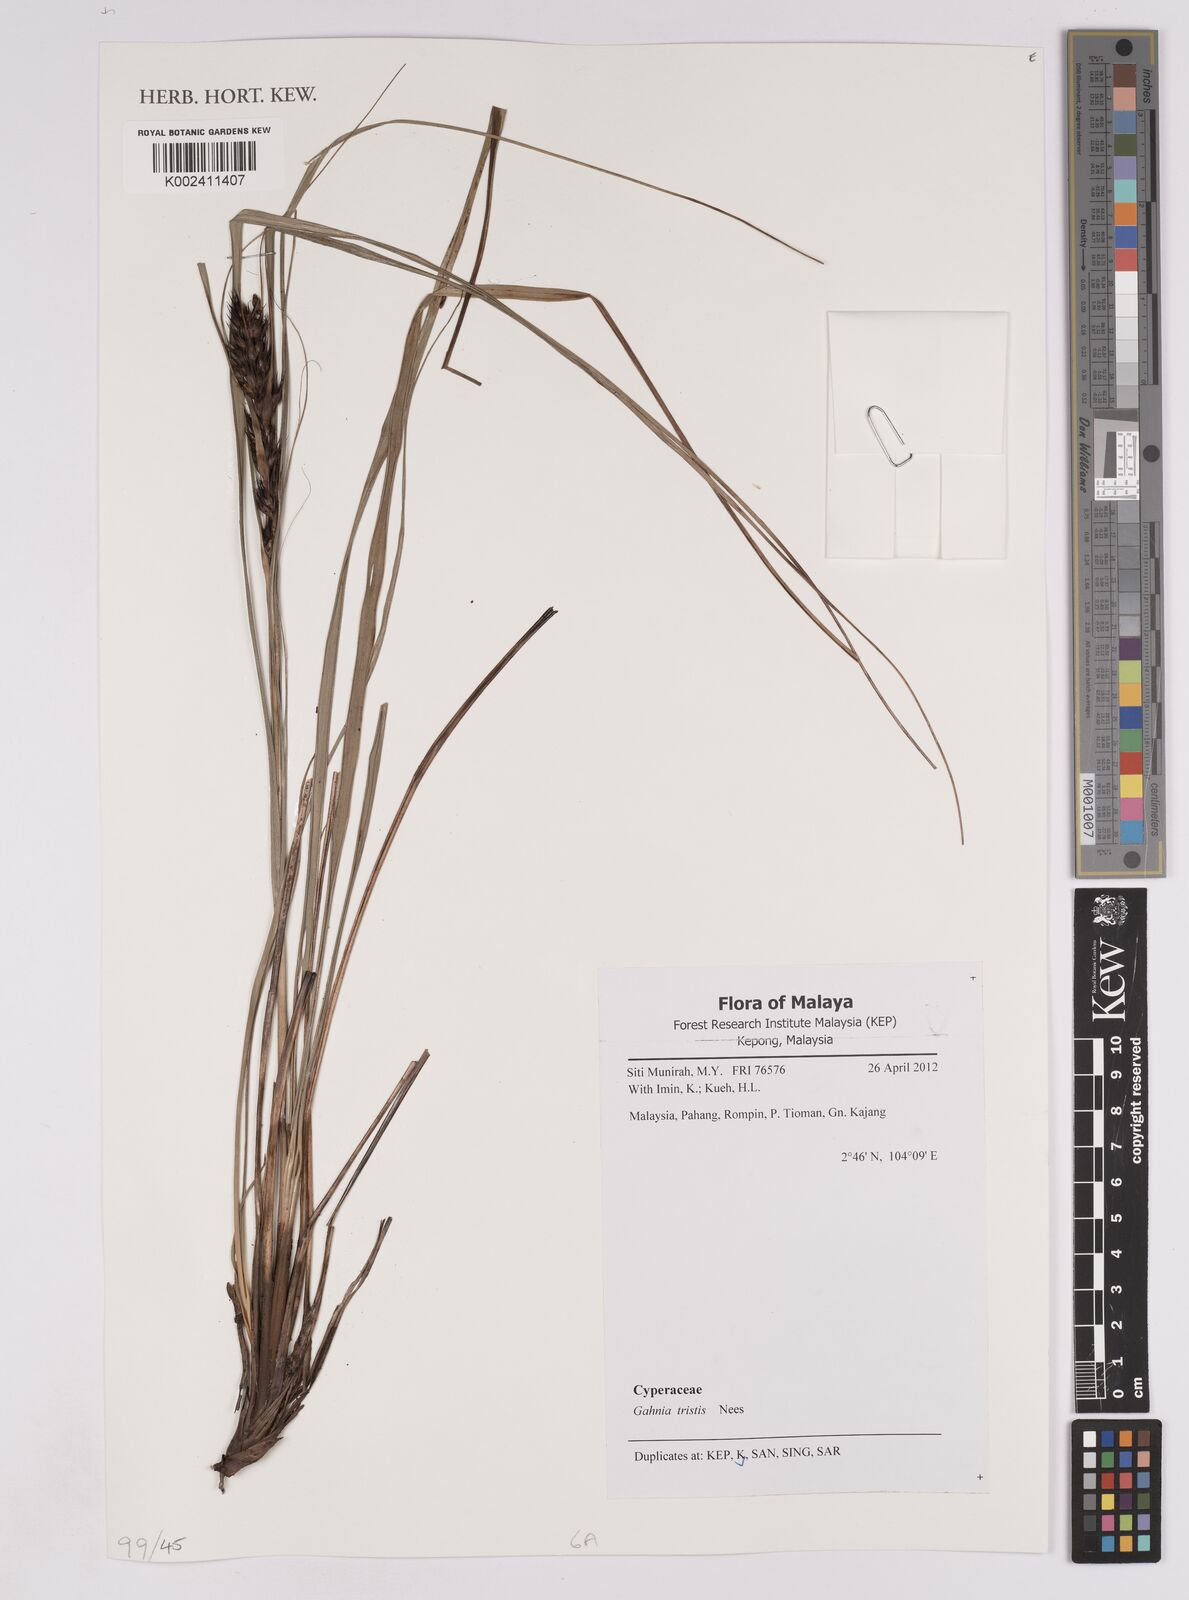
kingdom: Plantae
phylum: Tracheophyta
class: Liliopsida
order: Poales
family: Cyperaceae
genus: Gahnia
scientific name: Gahnia tristis
